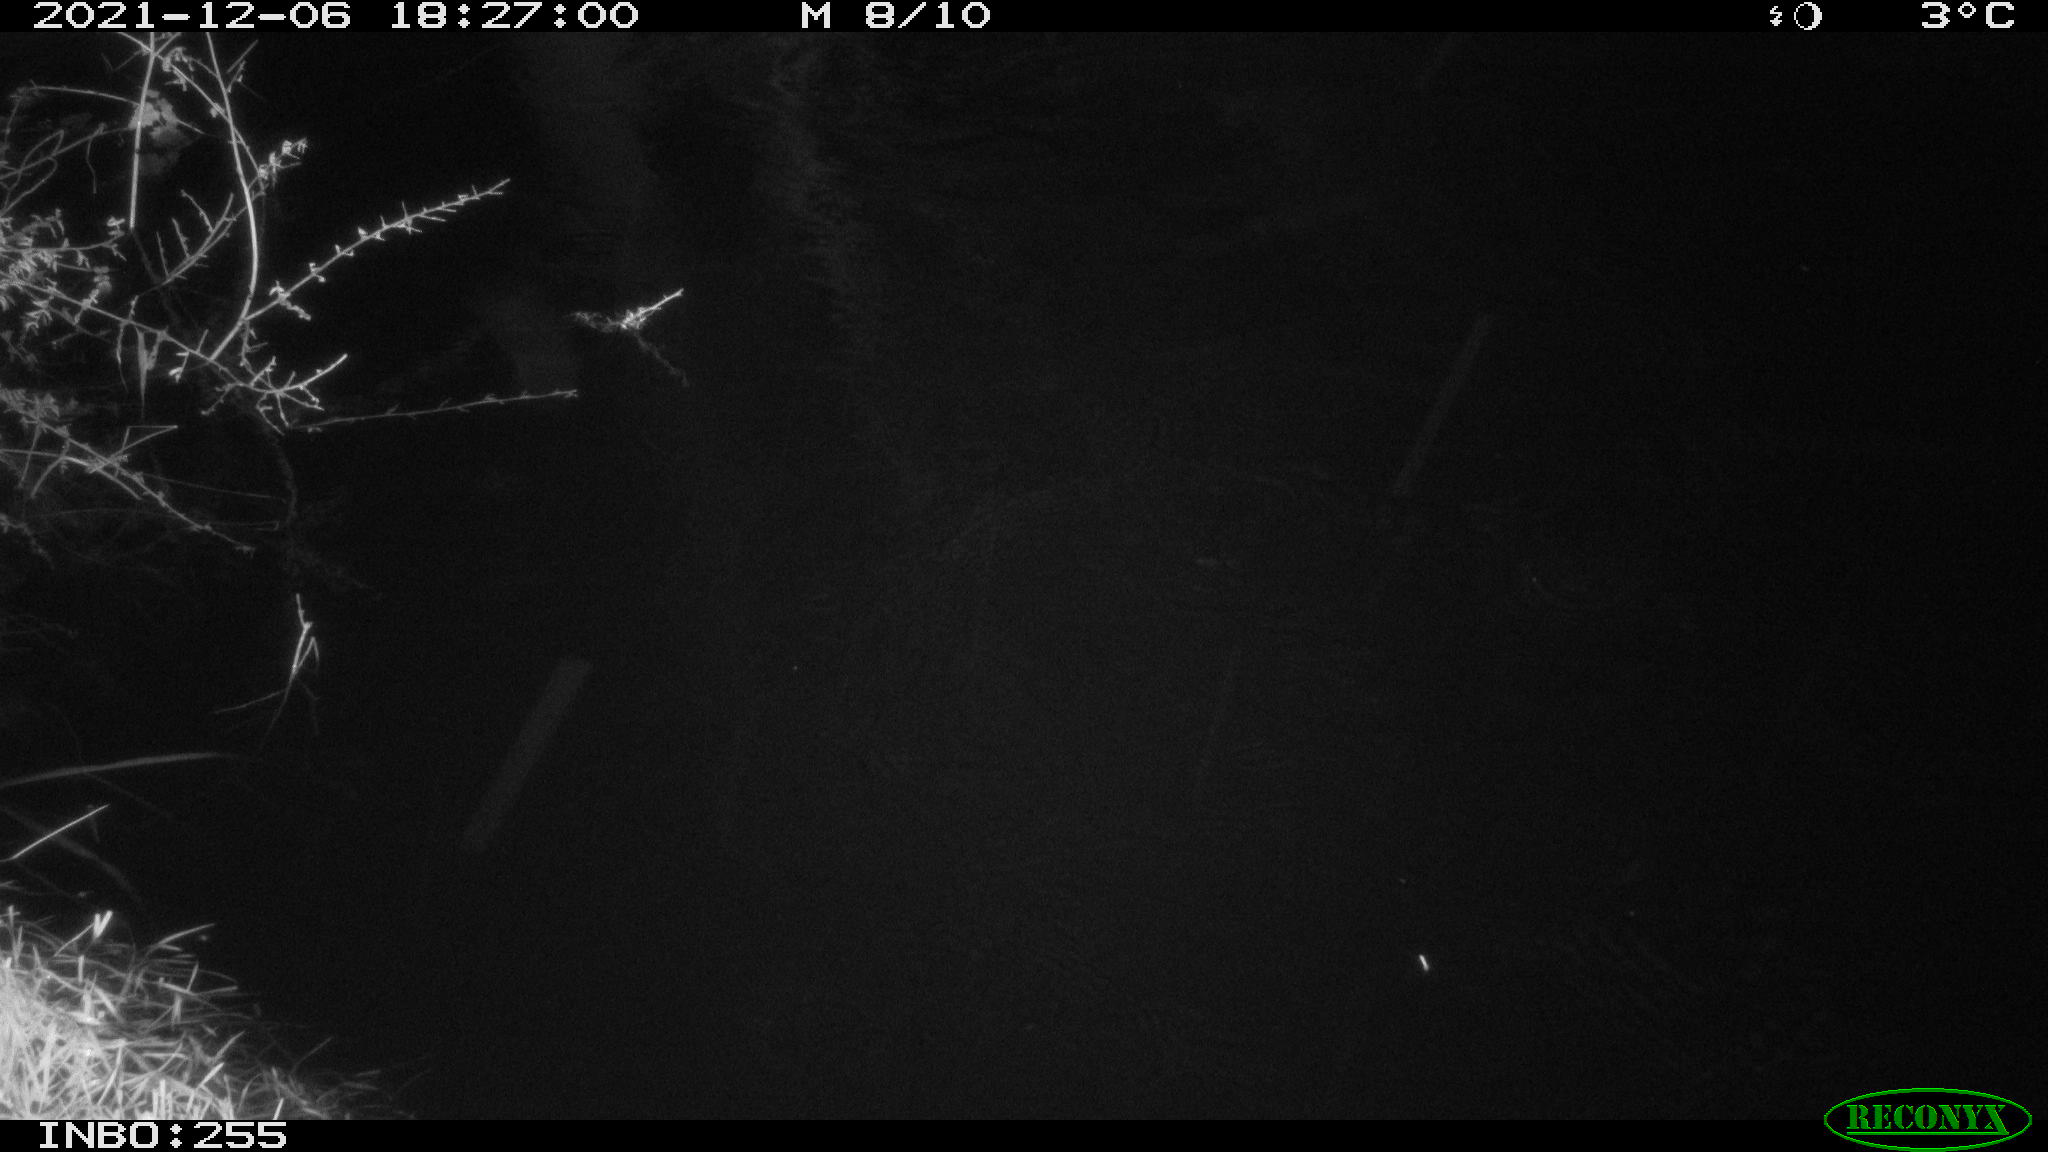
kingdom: Animalia
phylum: Chordata
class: Mammalia
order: Rodentia
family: Muridae
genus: Rattus
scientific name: Rattus norvegicus
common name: Brown rat
